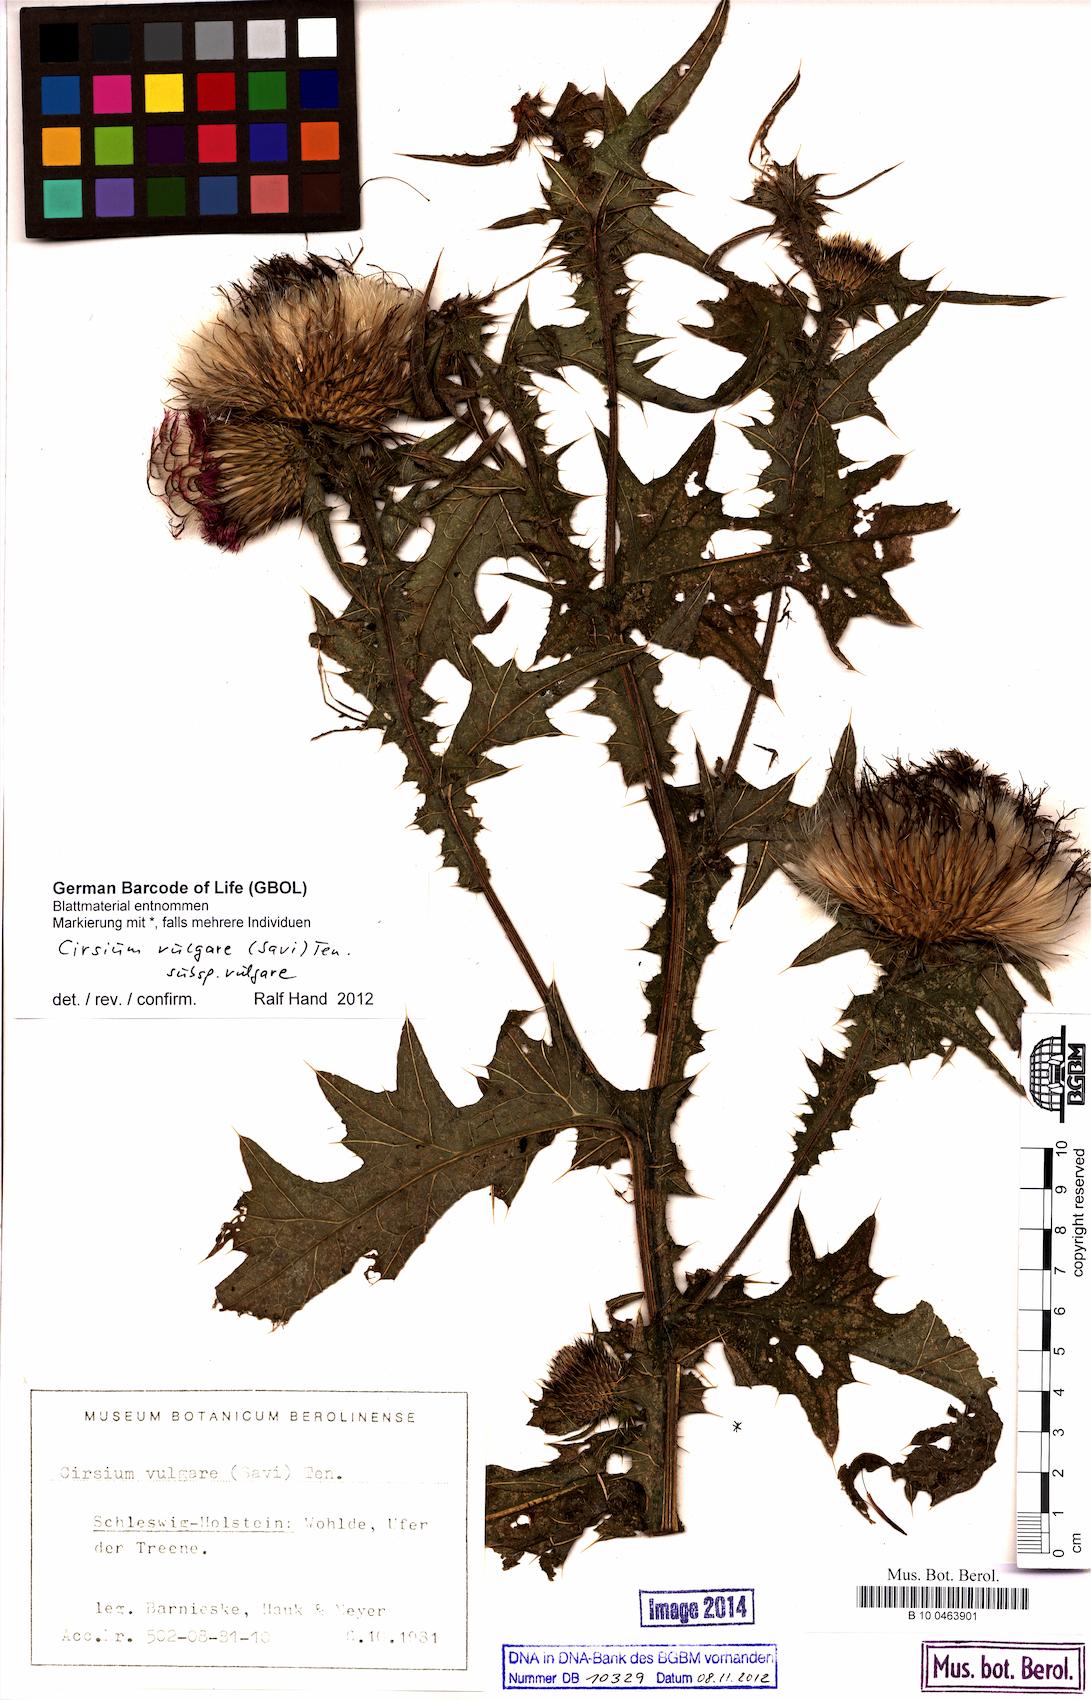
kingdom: Plantae
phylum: Tracheophyta
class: Magnoliopsida
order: Asterales
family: Asteraceae
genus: Cirsium
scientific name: Cirsium vulgare
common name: Bull thistle
